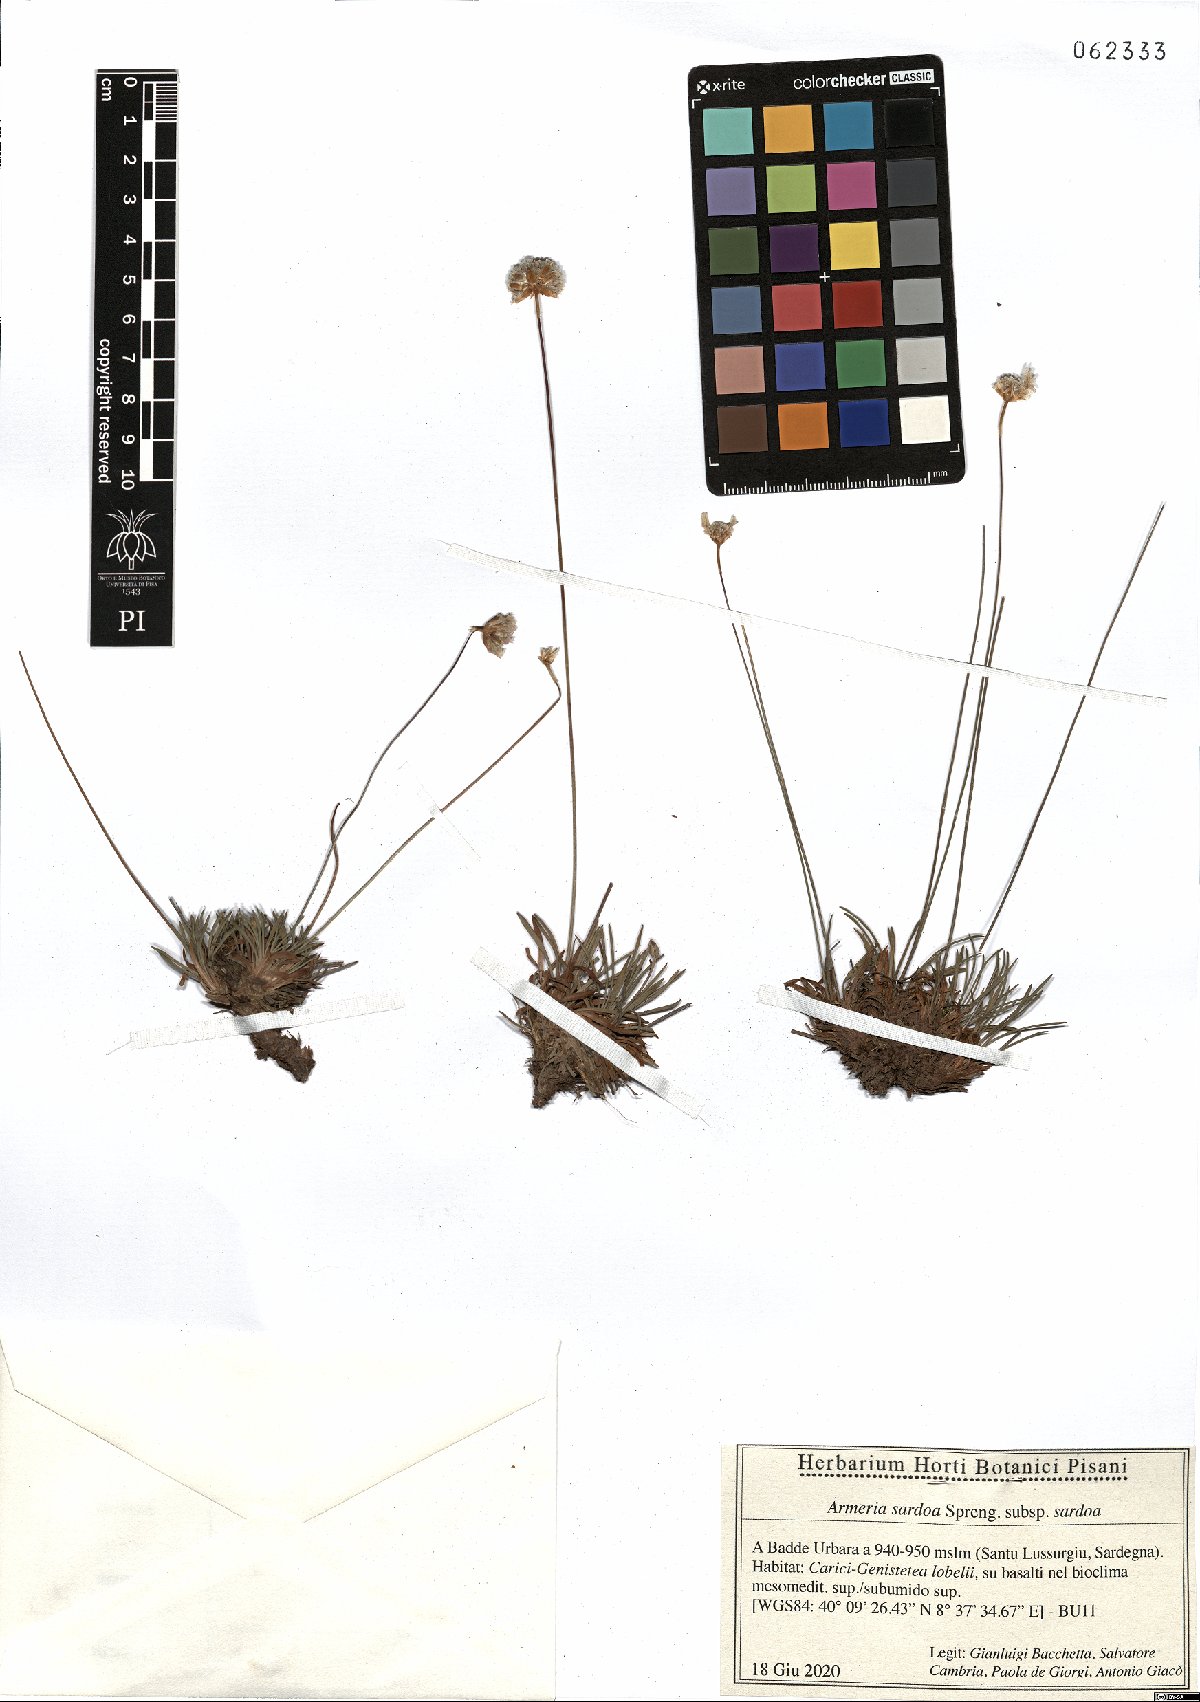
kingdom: Plantae
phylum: Tracheophyta
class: Magnoliopsida
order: Caryophyllales
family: Plumbaginaceae
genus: Armeria
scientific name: Armeria sardoa
